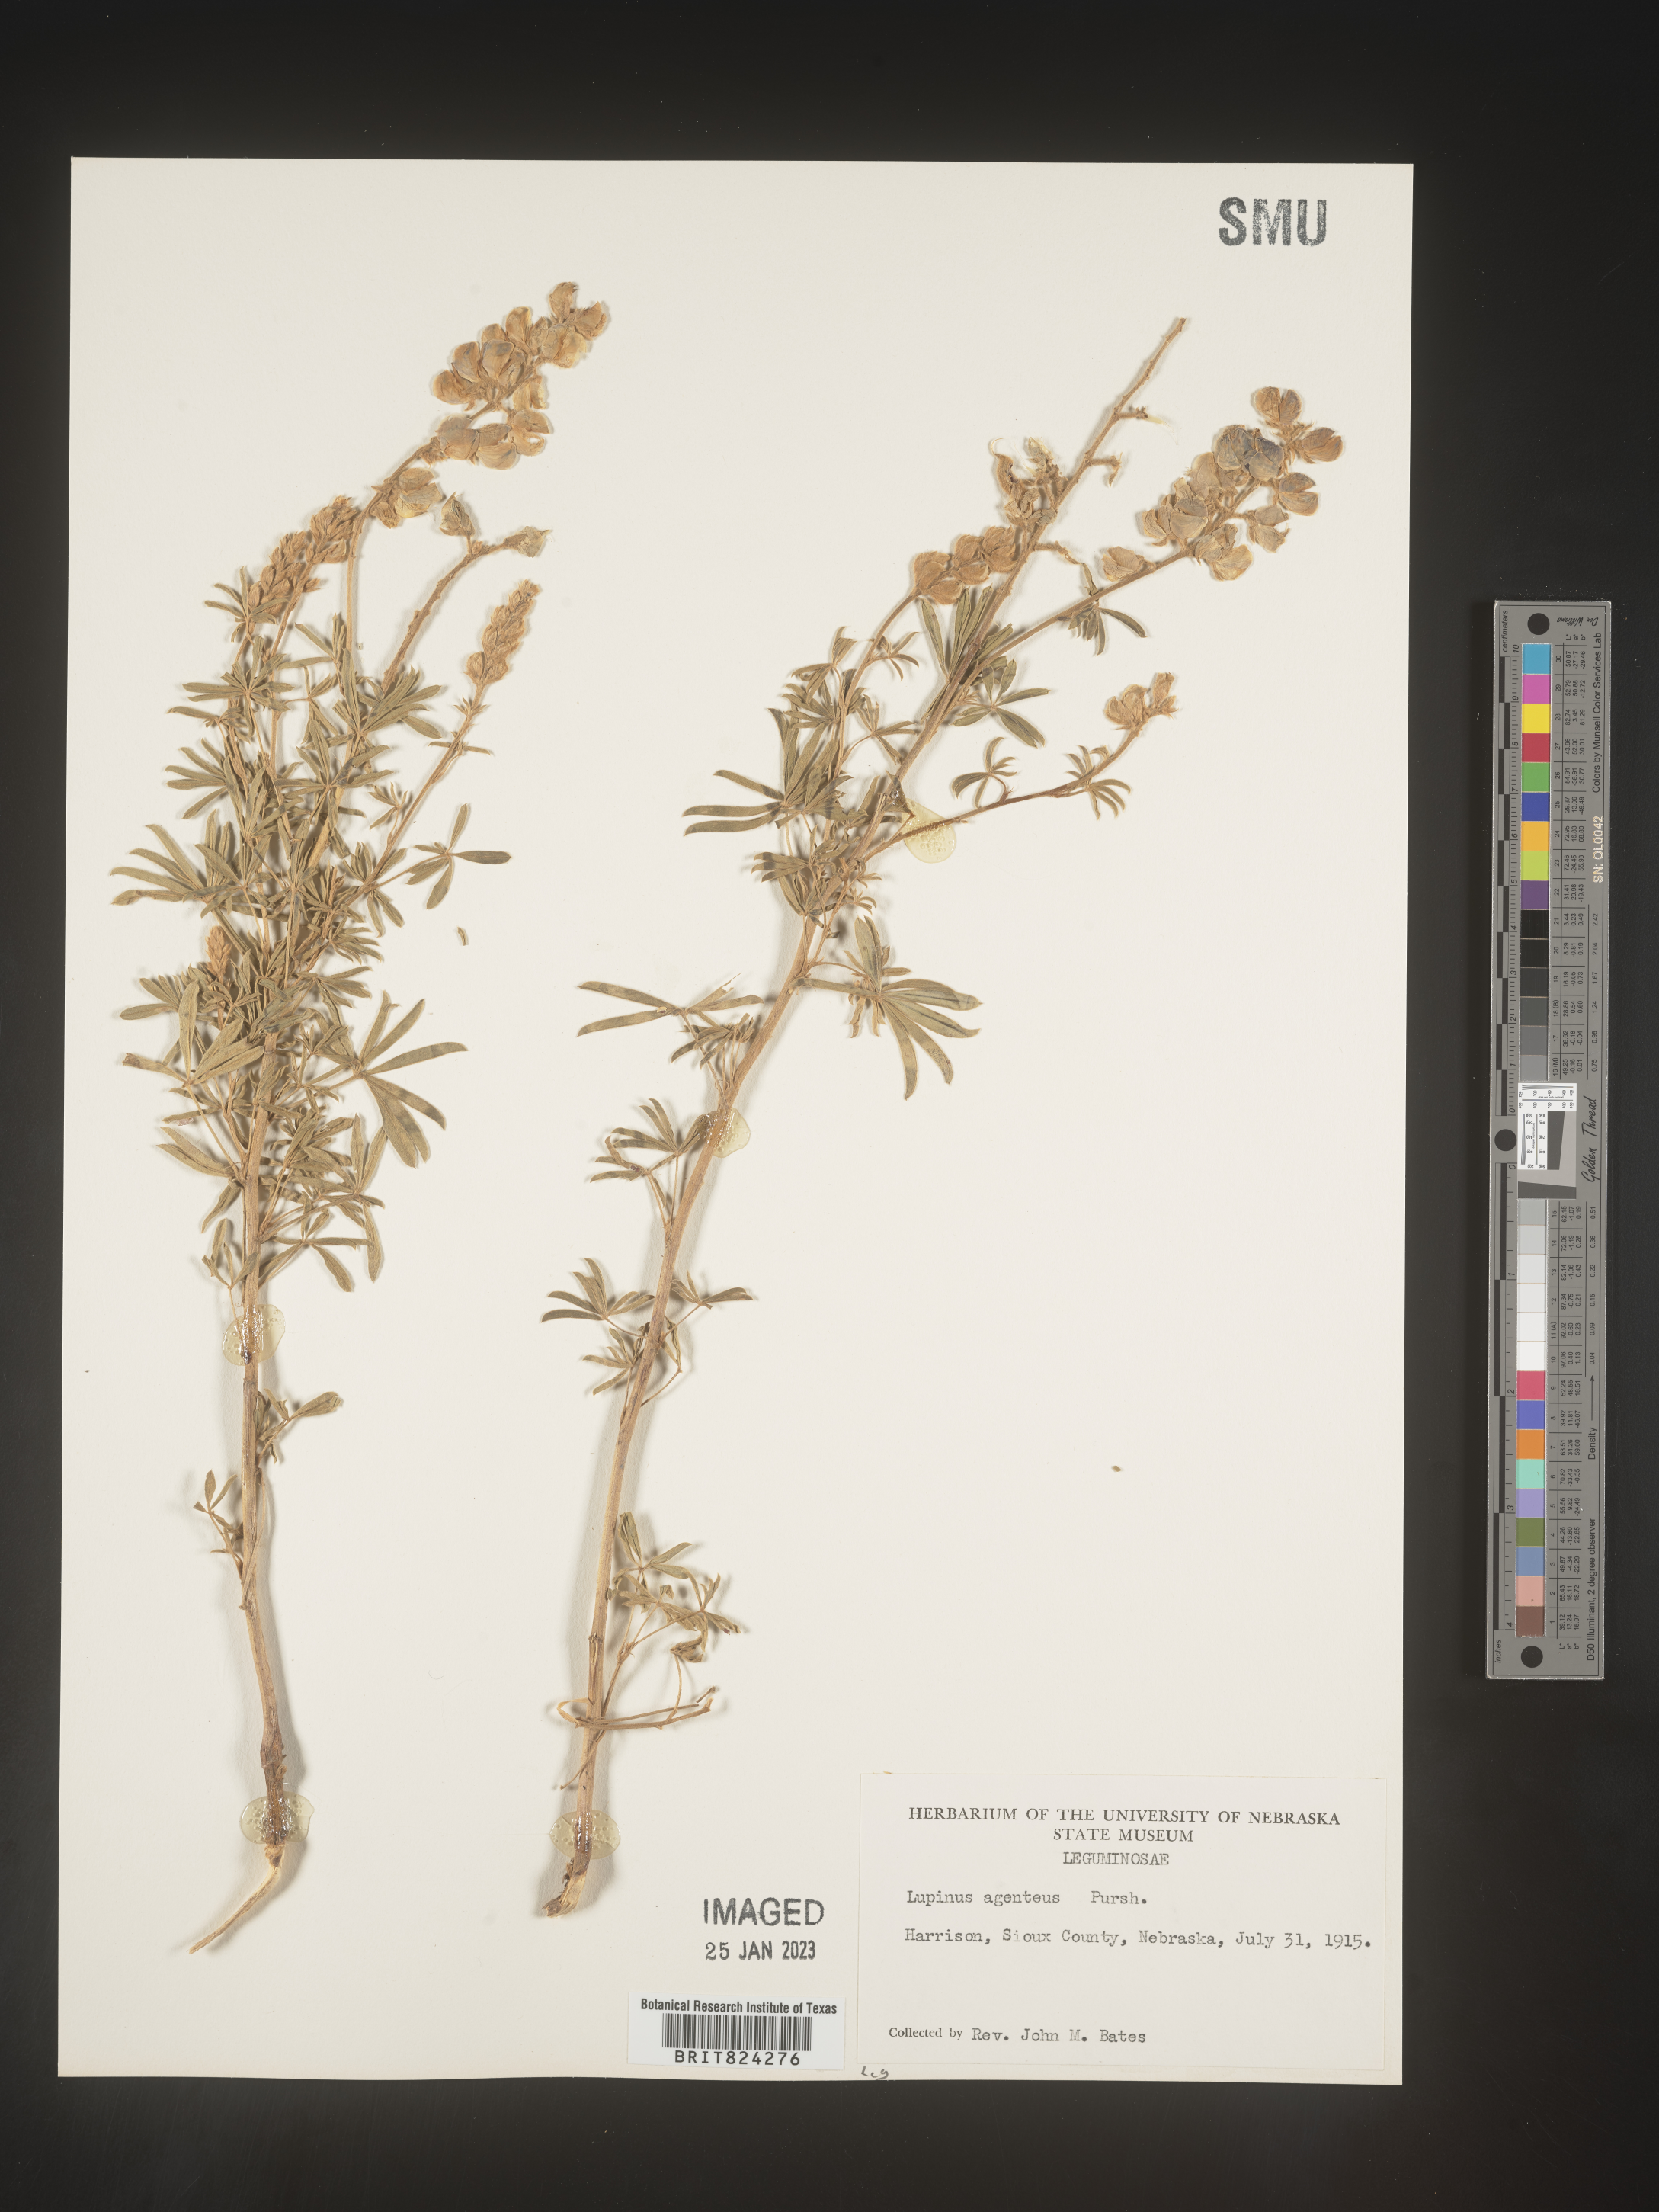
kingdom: Plantae
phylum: Tracheophyta
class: Magnoliopsida
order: Fabales
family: Fabaceae
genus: Lupinus
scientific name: Lupinus
